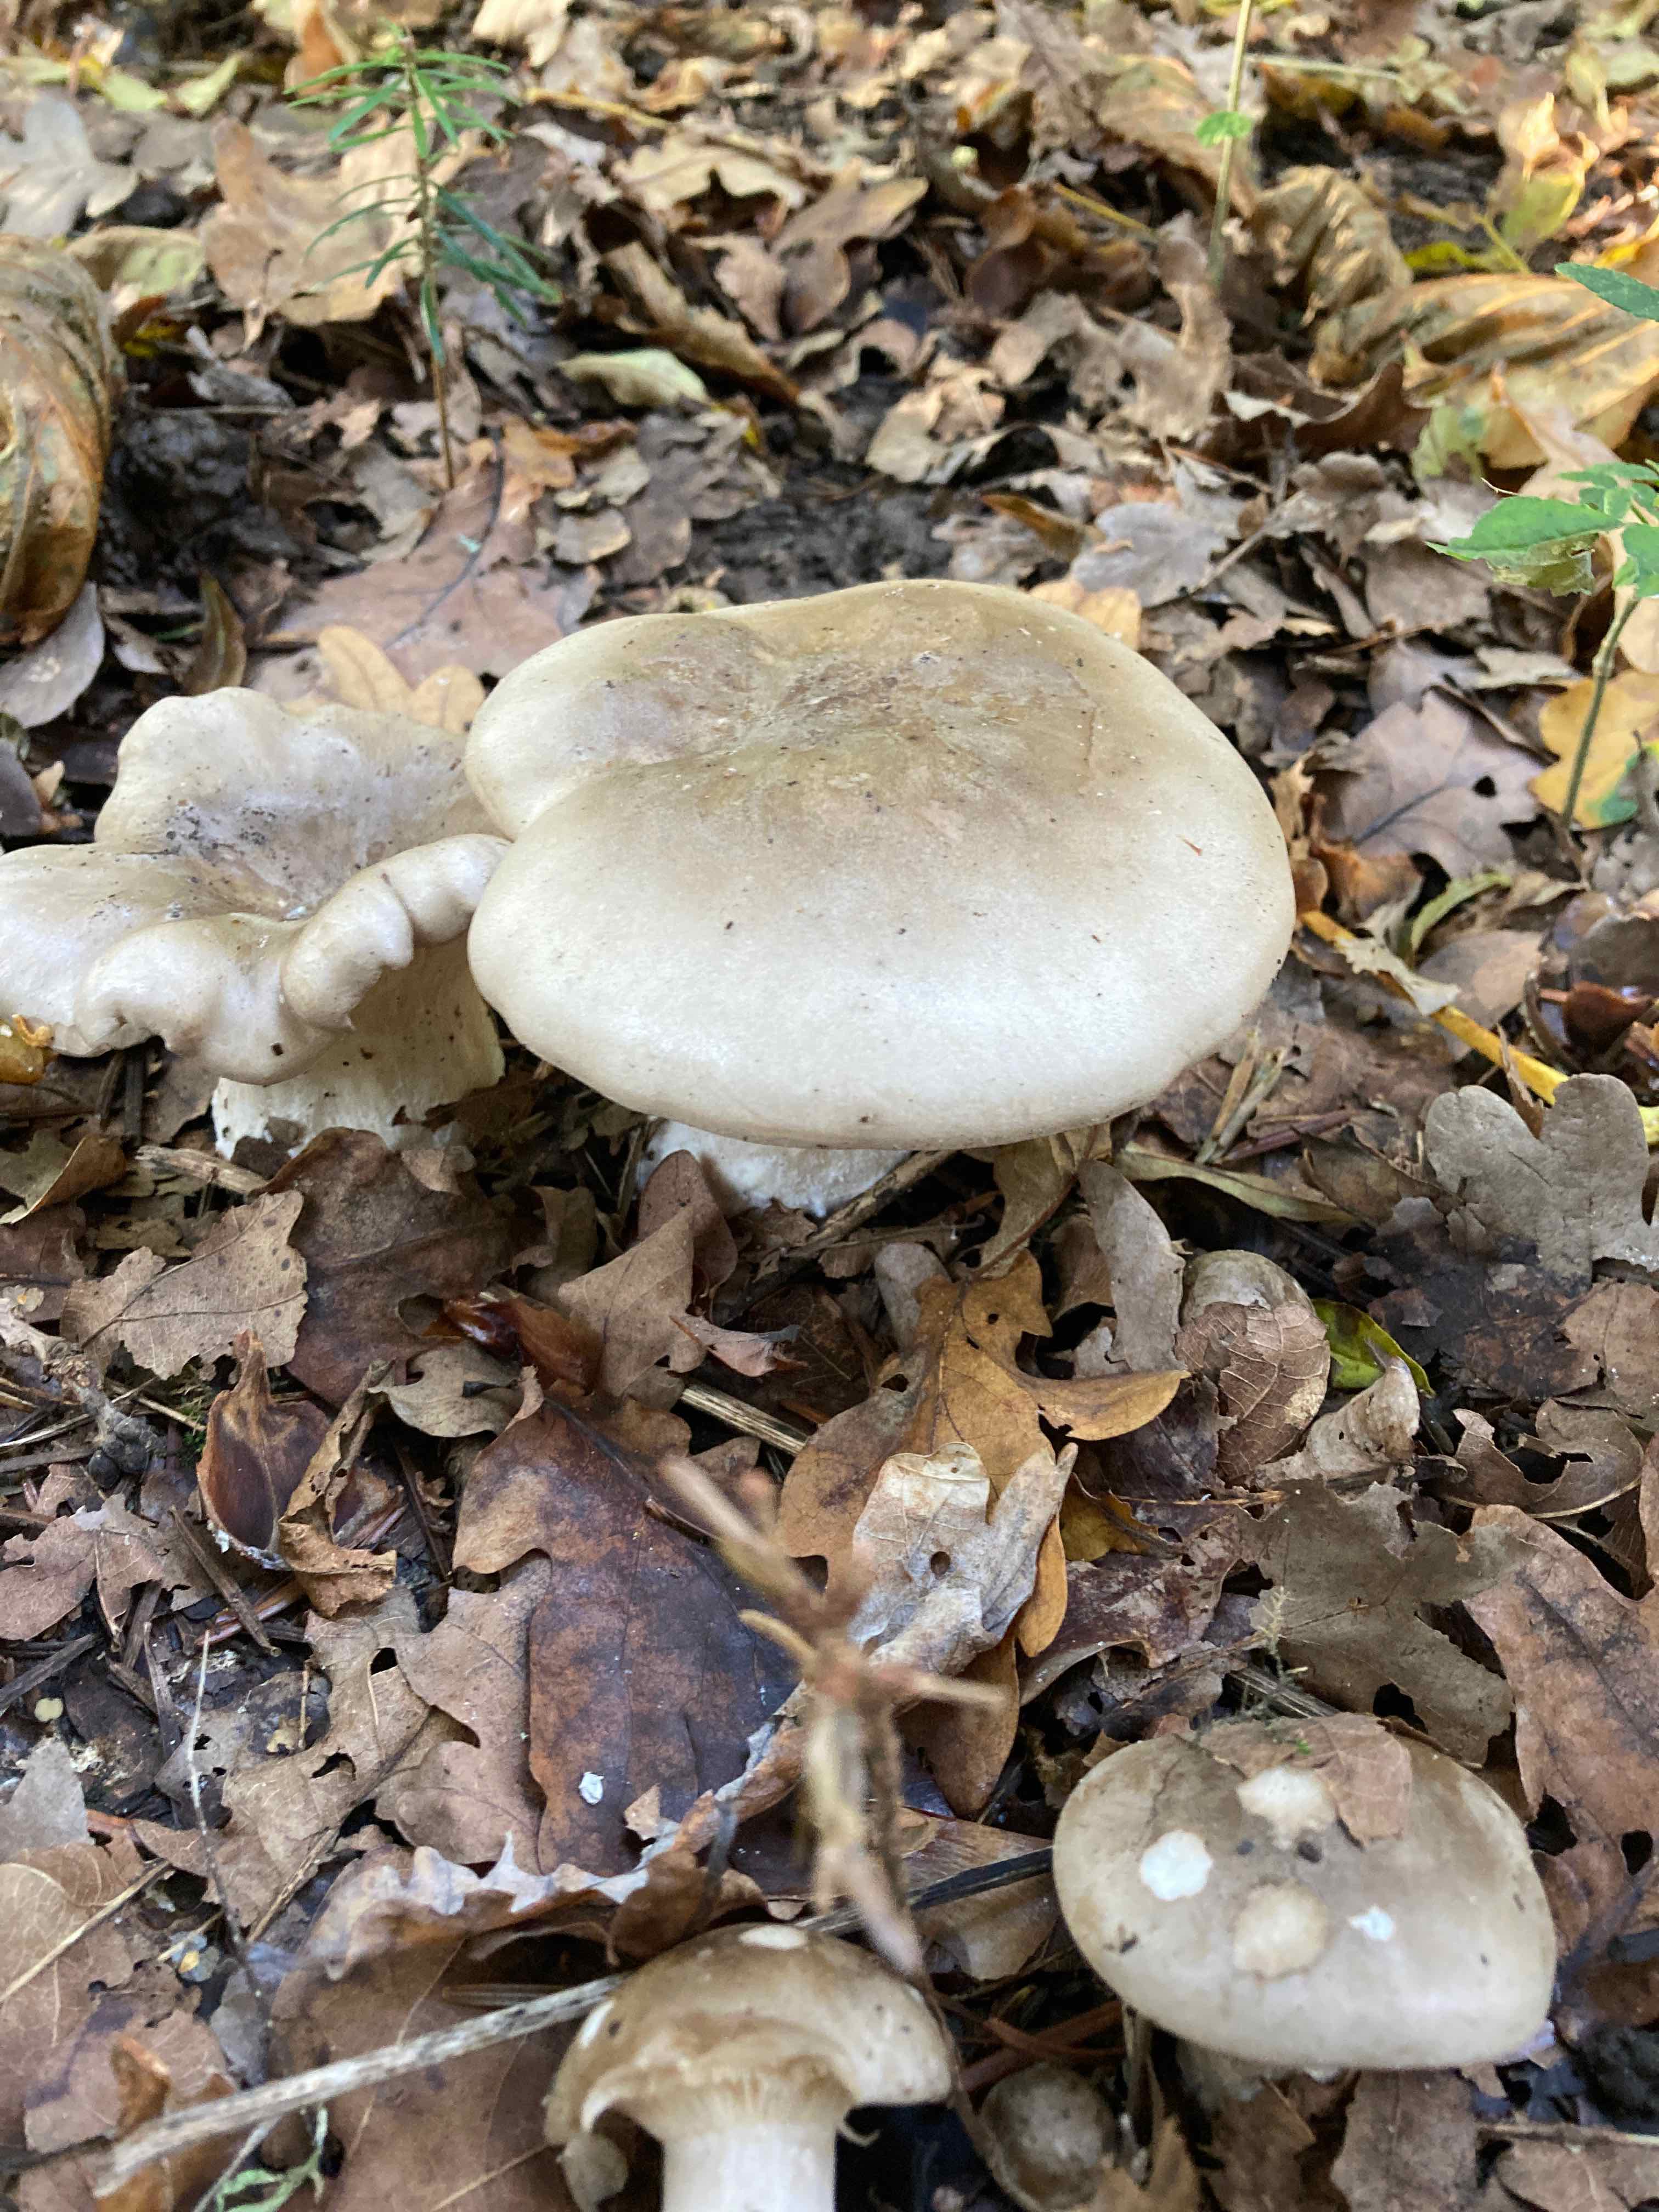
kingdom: Fungi
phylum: Basidiomycota
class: Agaricomycetes
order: Agaricales
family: Tricholomataceae
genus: Clitocybe
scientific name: Clitocybe nebularis
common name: tåge-tragthat
